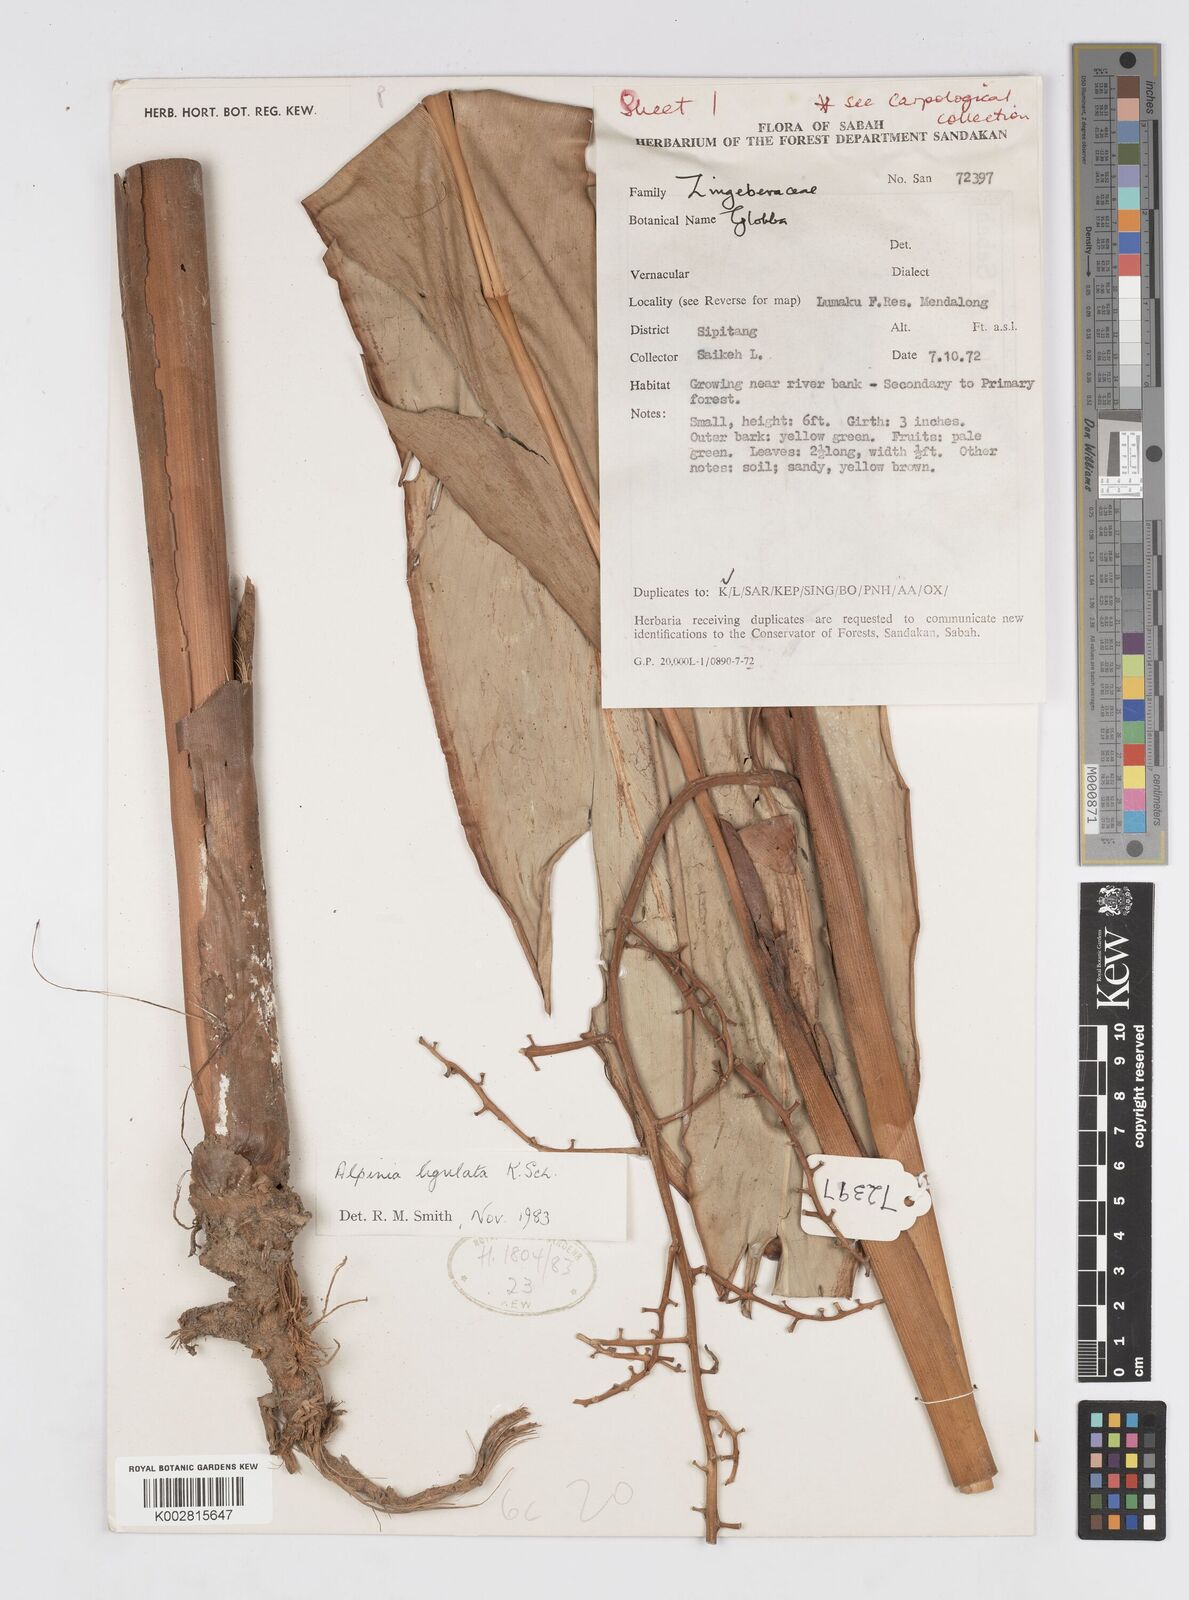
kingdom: Plantae
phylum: Tracheophyta
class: Liliopsida
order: Zingiberales
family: Zingiberaceae
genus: Alpinia
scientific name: Alpinia ligulata
